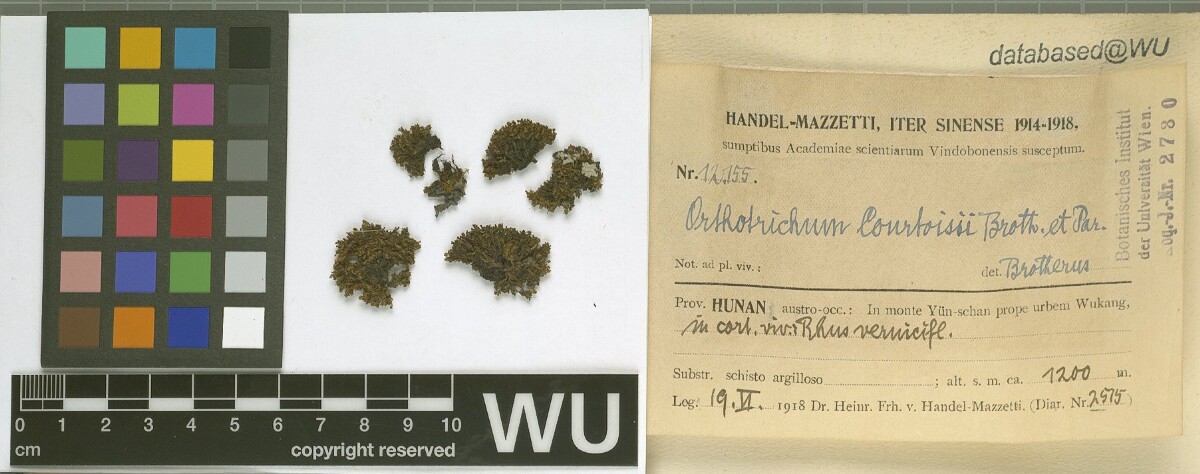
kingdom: Plantae
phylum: Bryophyta
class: Bryopsida
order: Orthotrichales
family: Orthotrichaceae
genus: Orthotrichum
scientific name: Orthotrichum consobrinum
